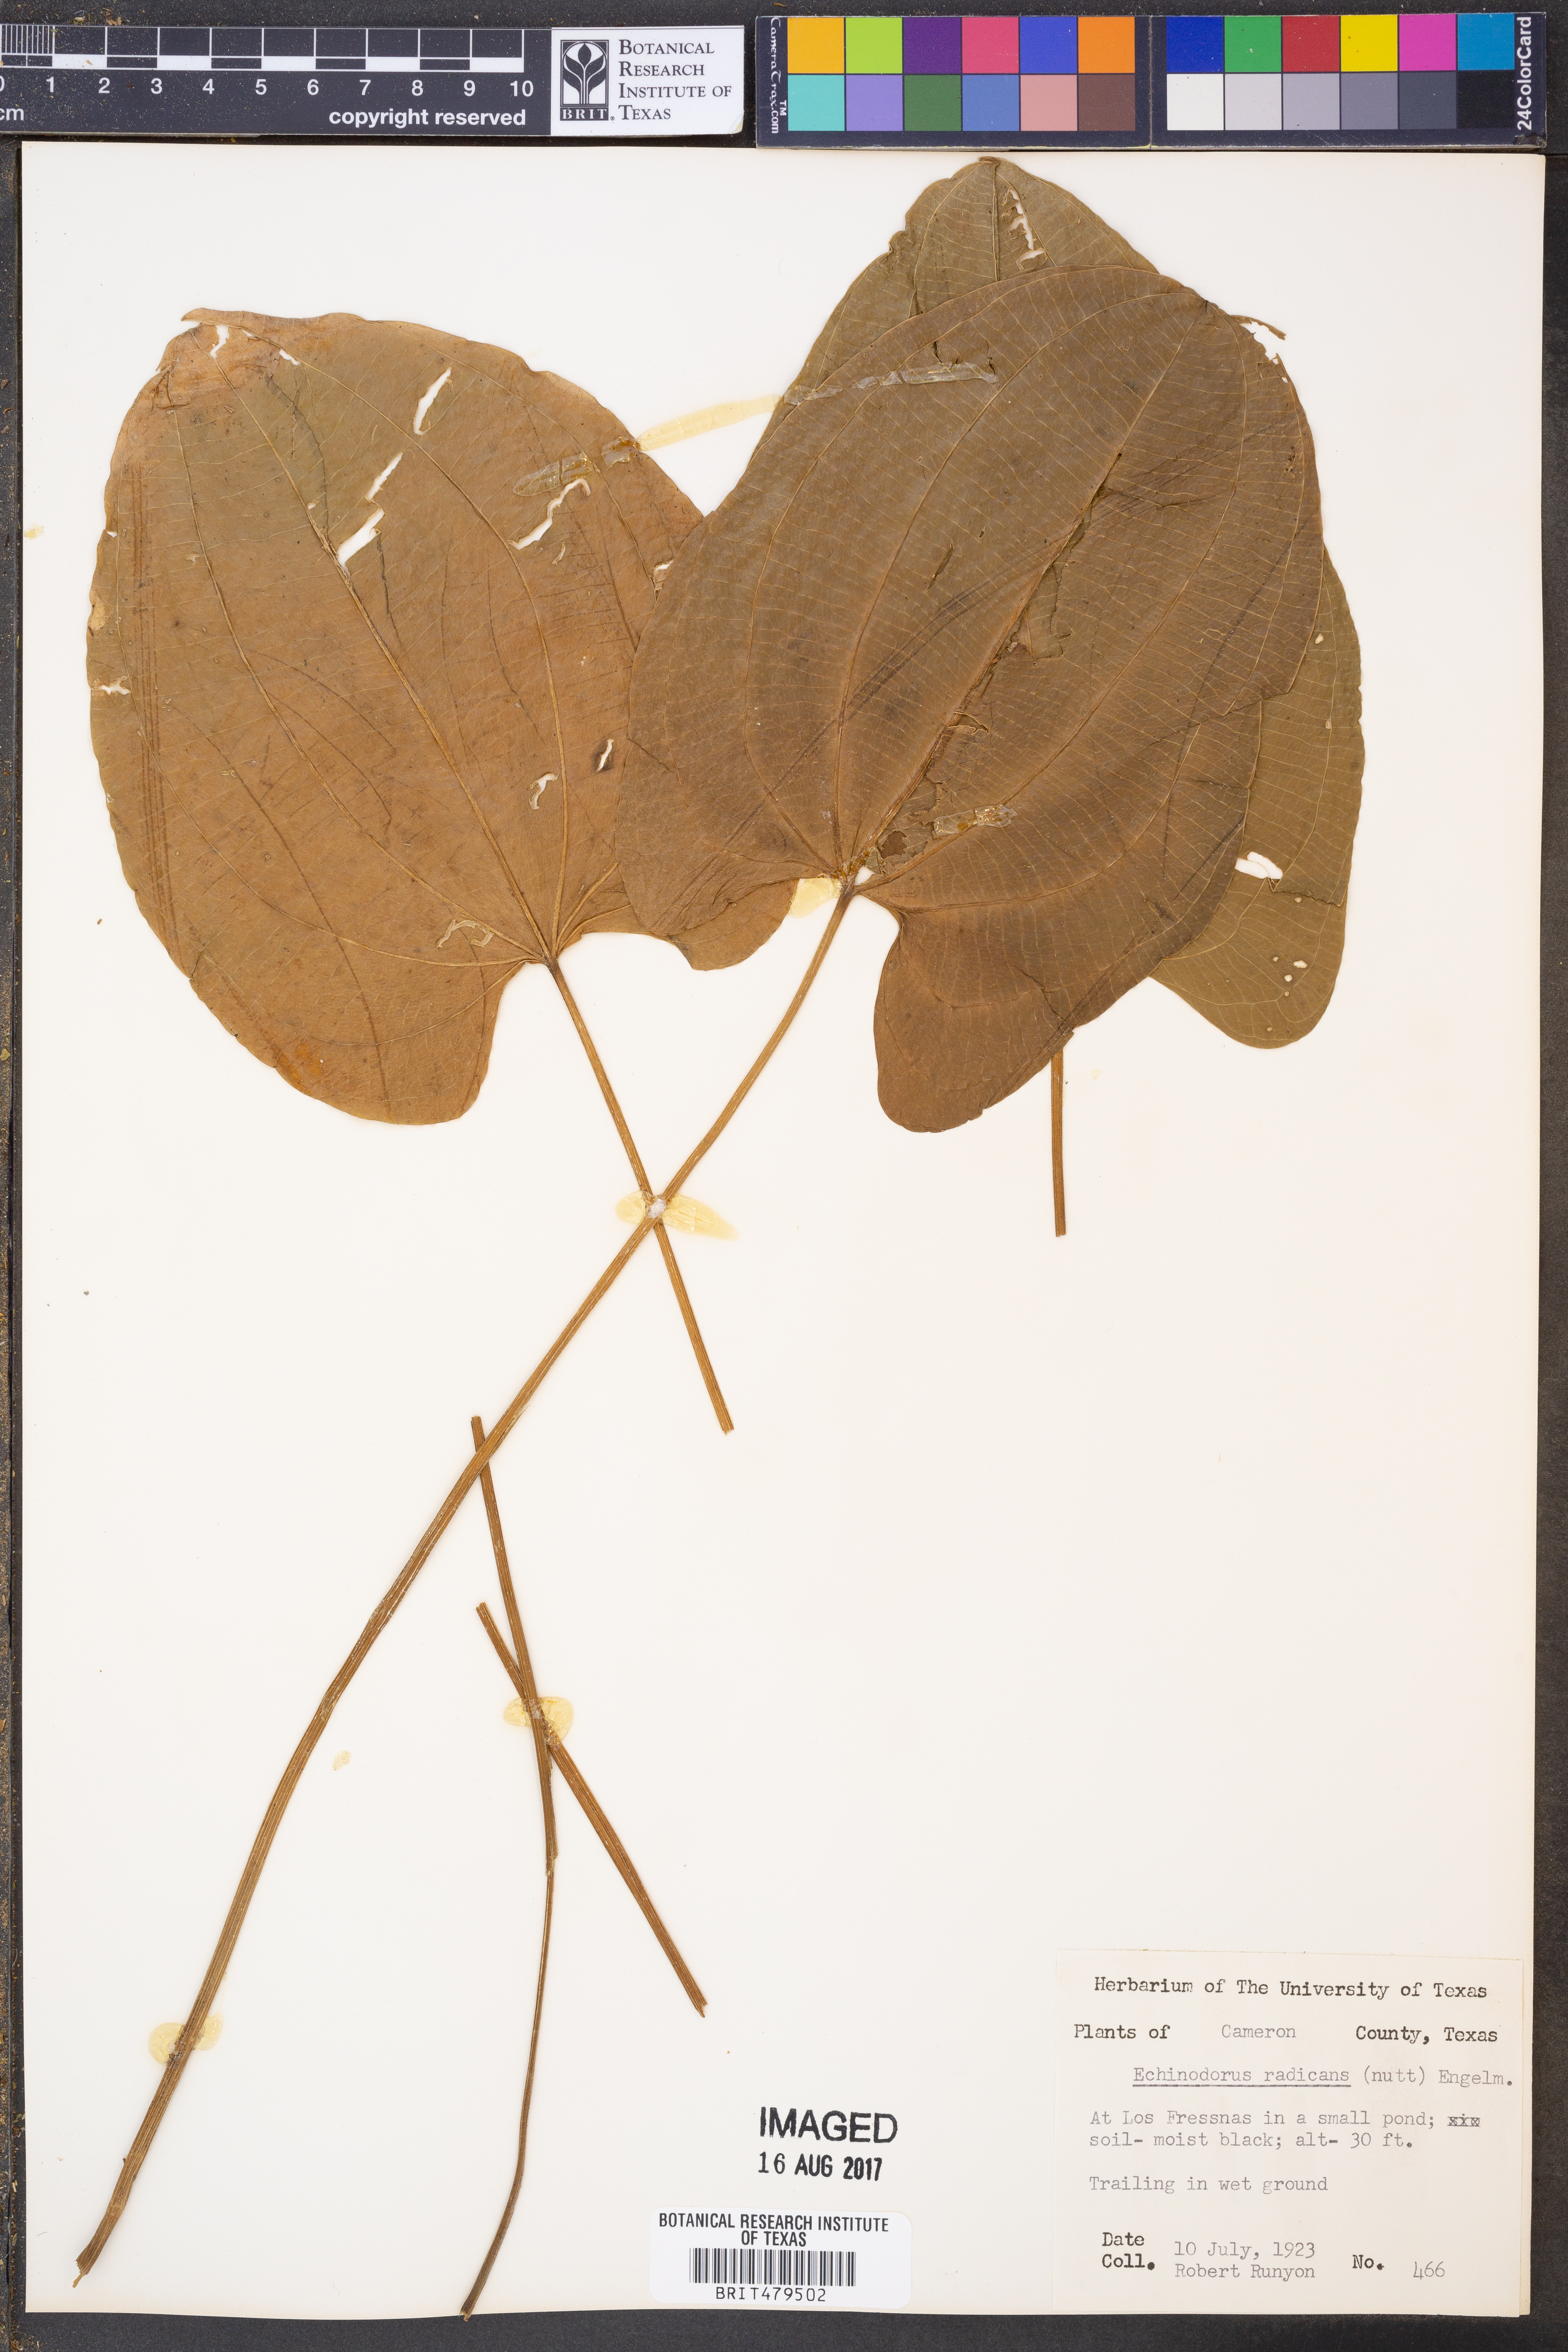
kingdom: Plantae
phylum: Tracheophyta
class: Liliopsida
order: Alismatales
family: Alismataceae
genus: Aquarius
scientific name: Aquarius cordifolius
